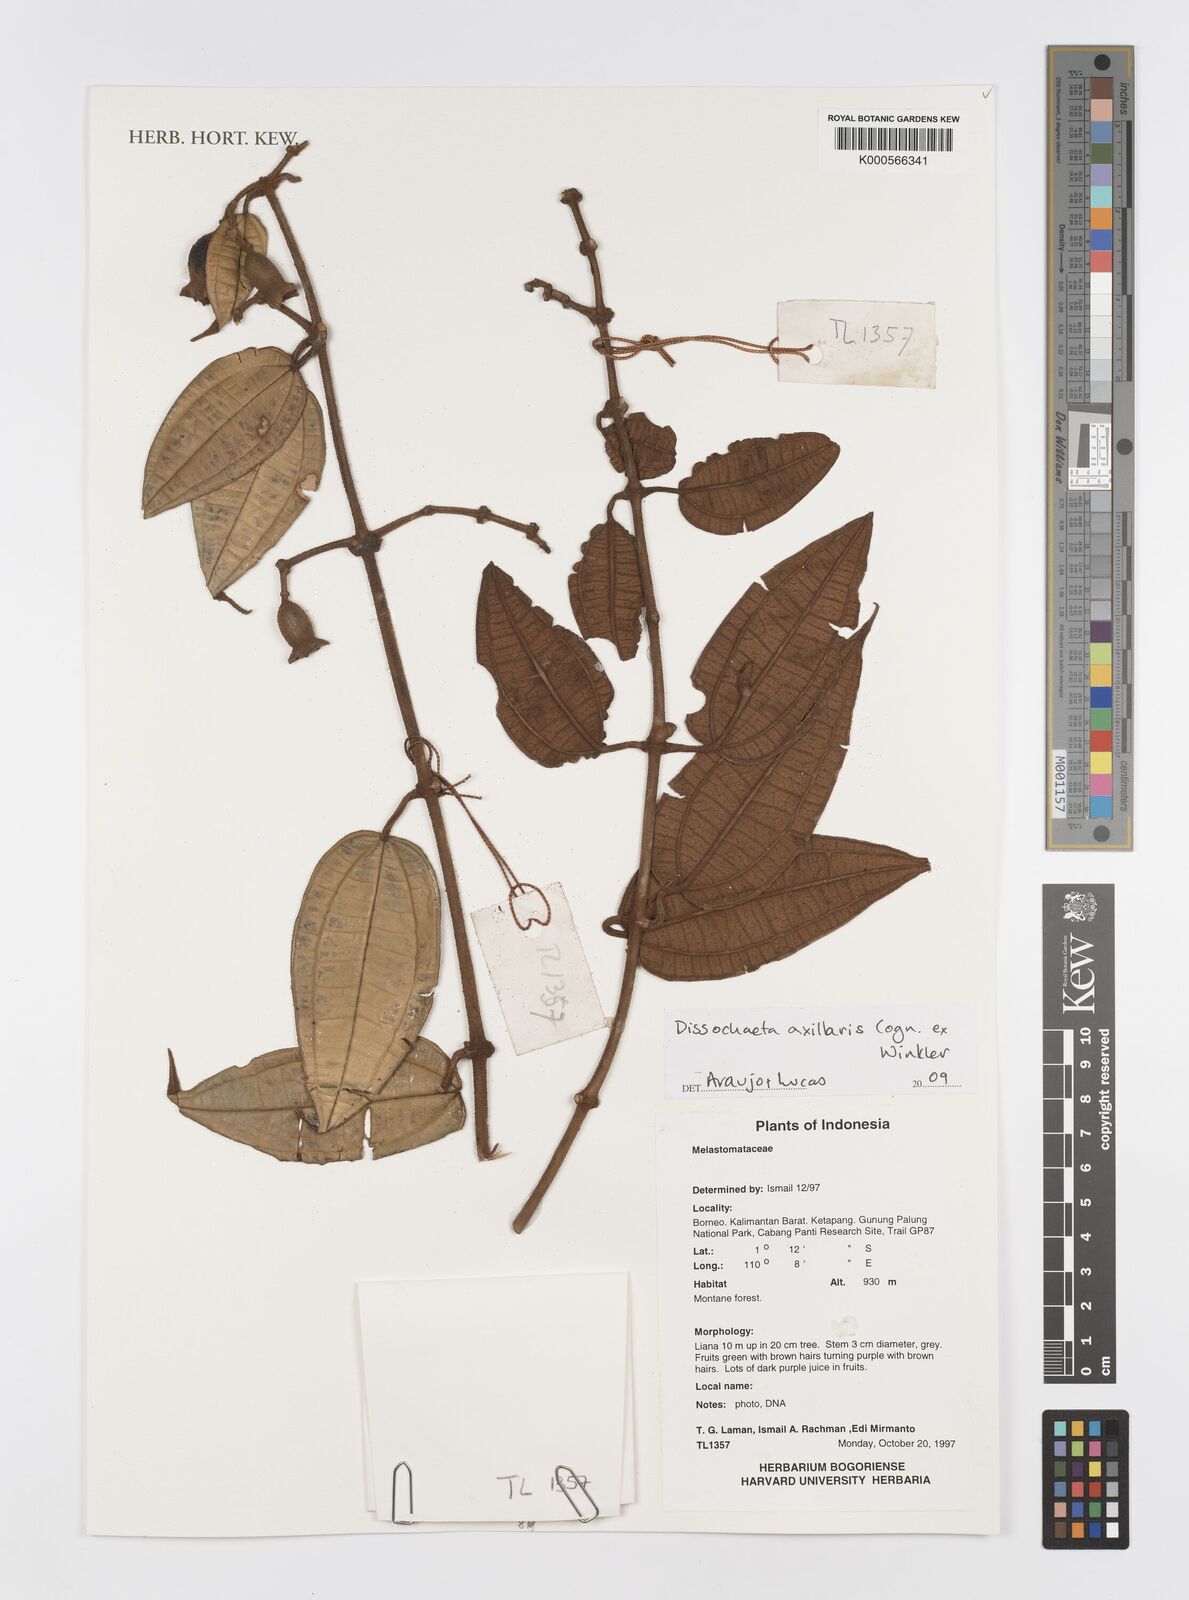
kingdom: Plantae
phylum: Tracheophyta
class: Magnoliopsida
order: Myrtales
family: Melastomataceae
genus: Dissochaeta
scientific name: Dissochaeta
